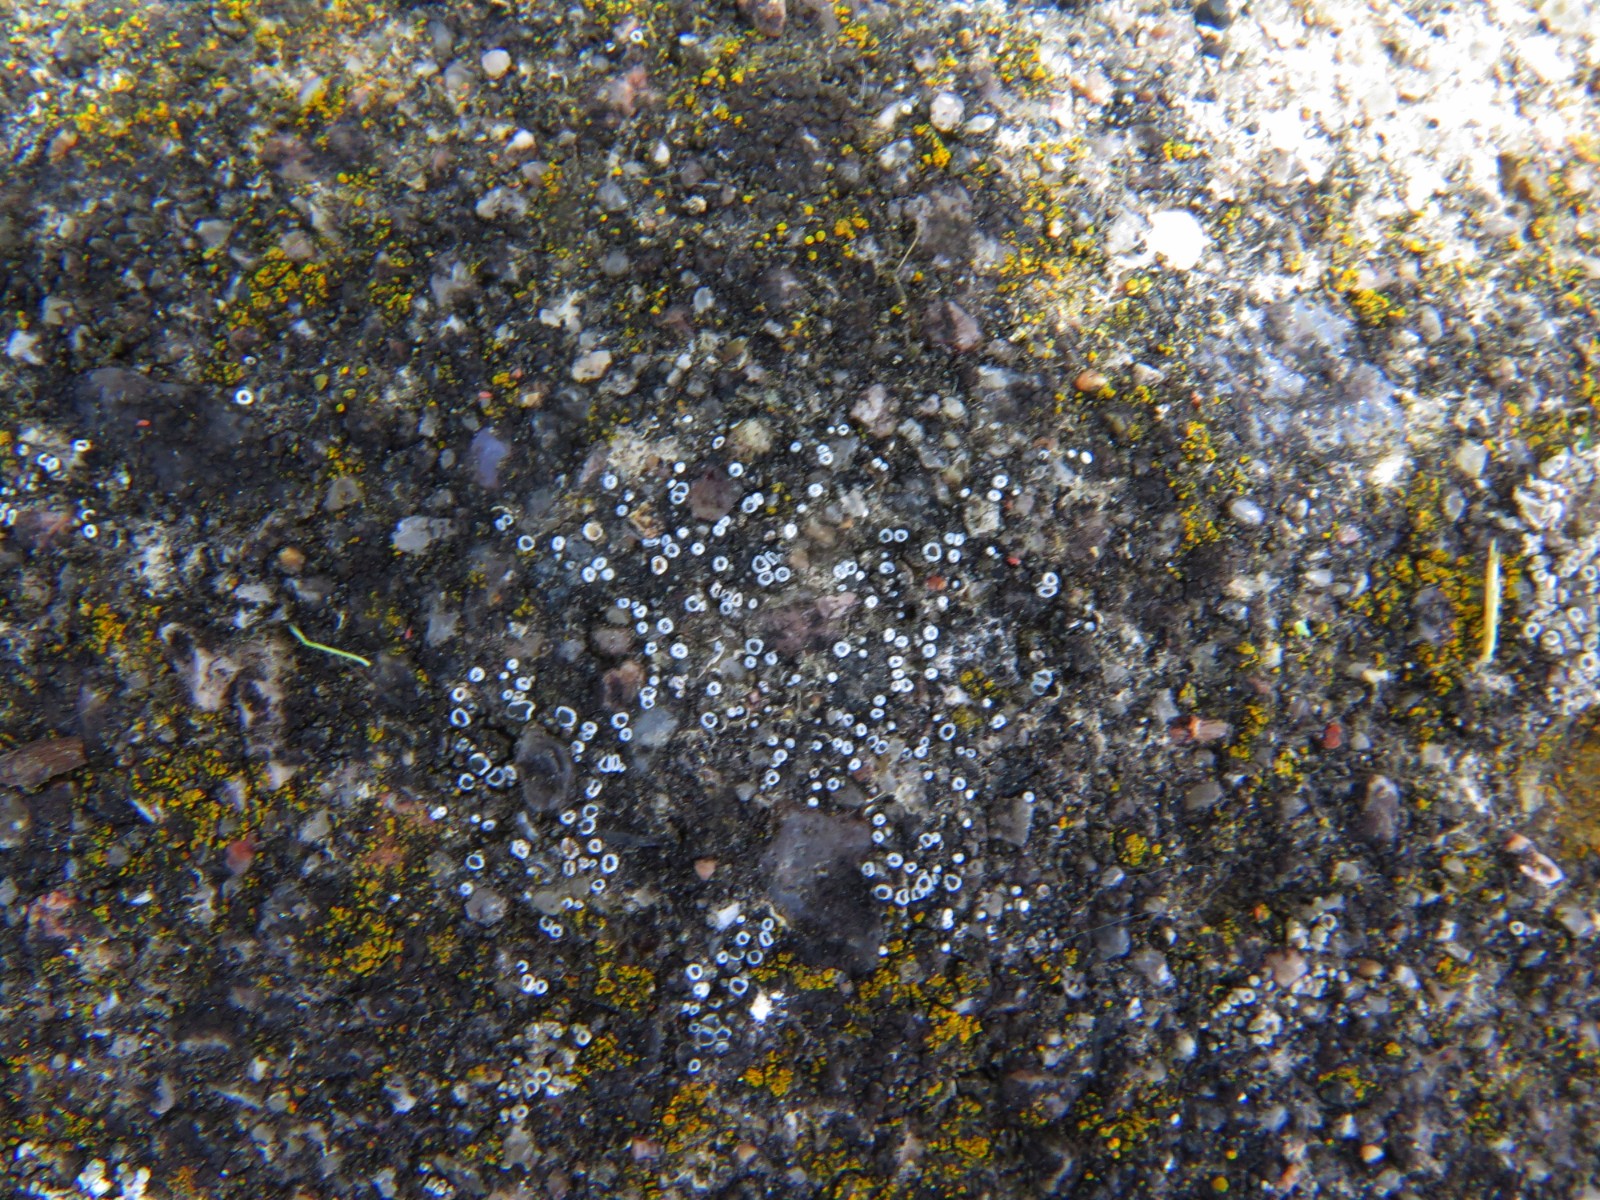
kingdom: Fungi
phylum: Ascomycota
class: Lecanoromycetes
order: Lecanorales
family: Lecanoraceae
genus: Polyozosia
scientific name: Polyozosia dispersa
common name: spredt kantskivelav
